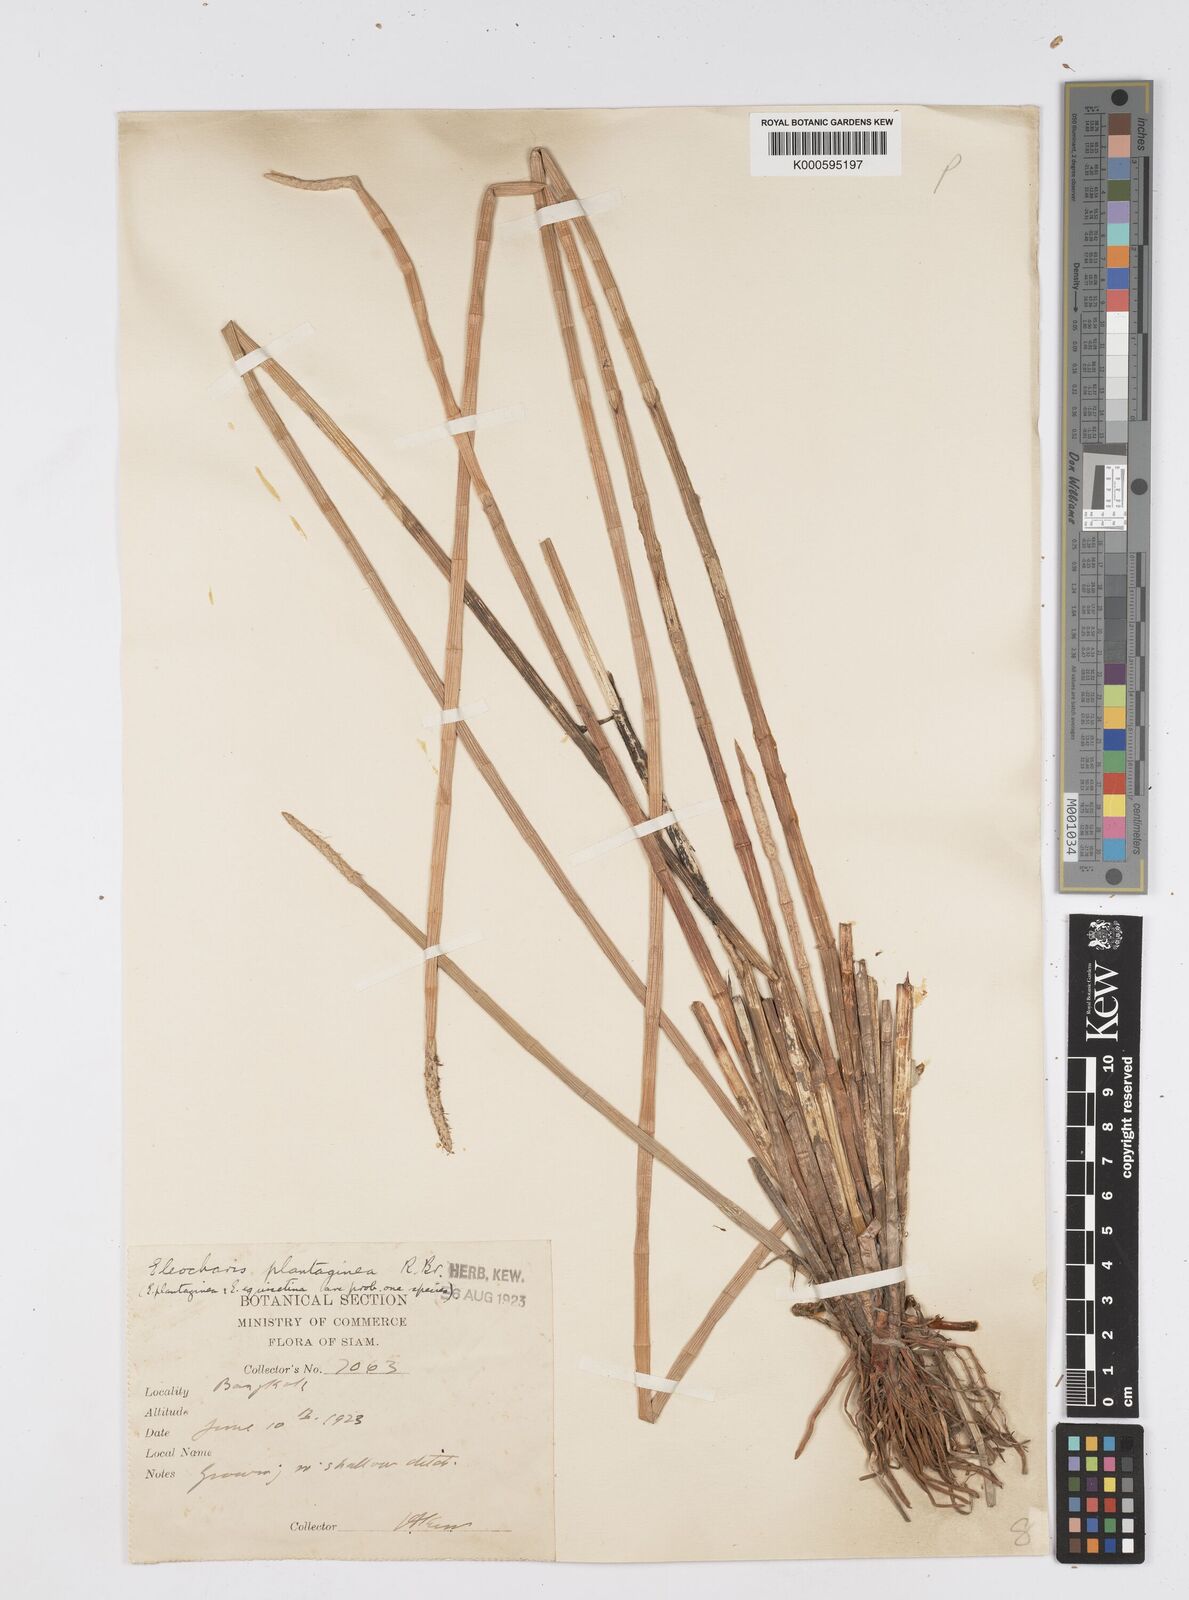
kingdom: Plantae
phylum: Tracheophyta
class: Liliopsida
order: Poales
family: Cyperaceae
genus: Eleocharis
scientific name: Eleocharis dulcis
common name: Chinese water chestnut
